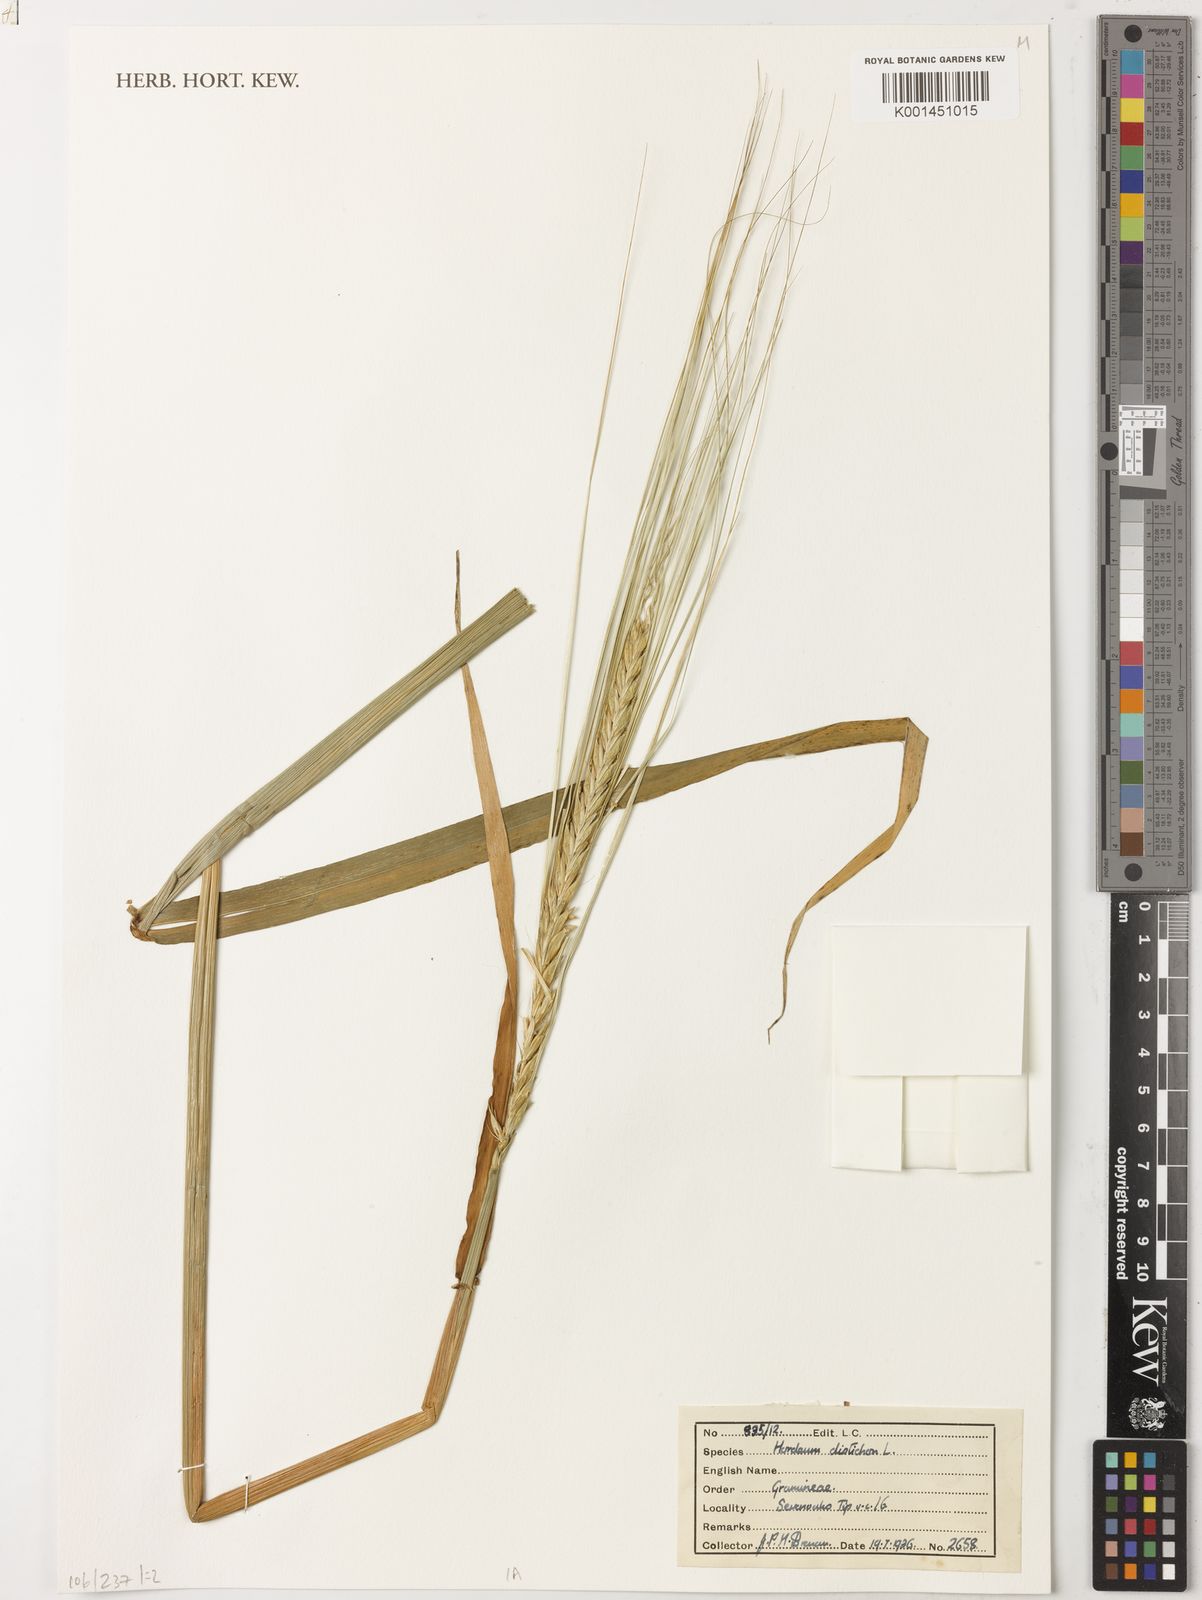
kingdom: Plantae
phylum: Tracheophyta
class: Liliopsida
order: Poales
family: Poaceae
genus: Hordeum
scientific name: Hordeum vulgare
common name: Common barley
